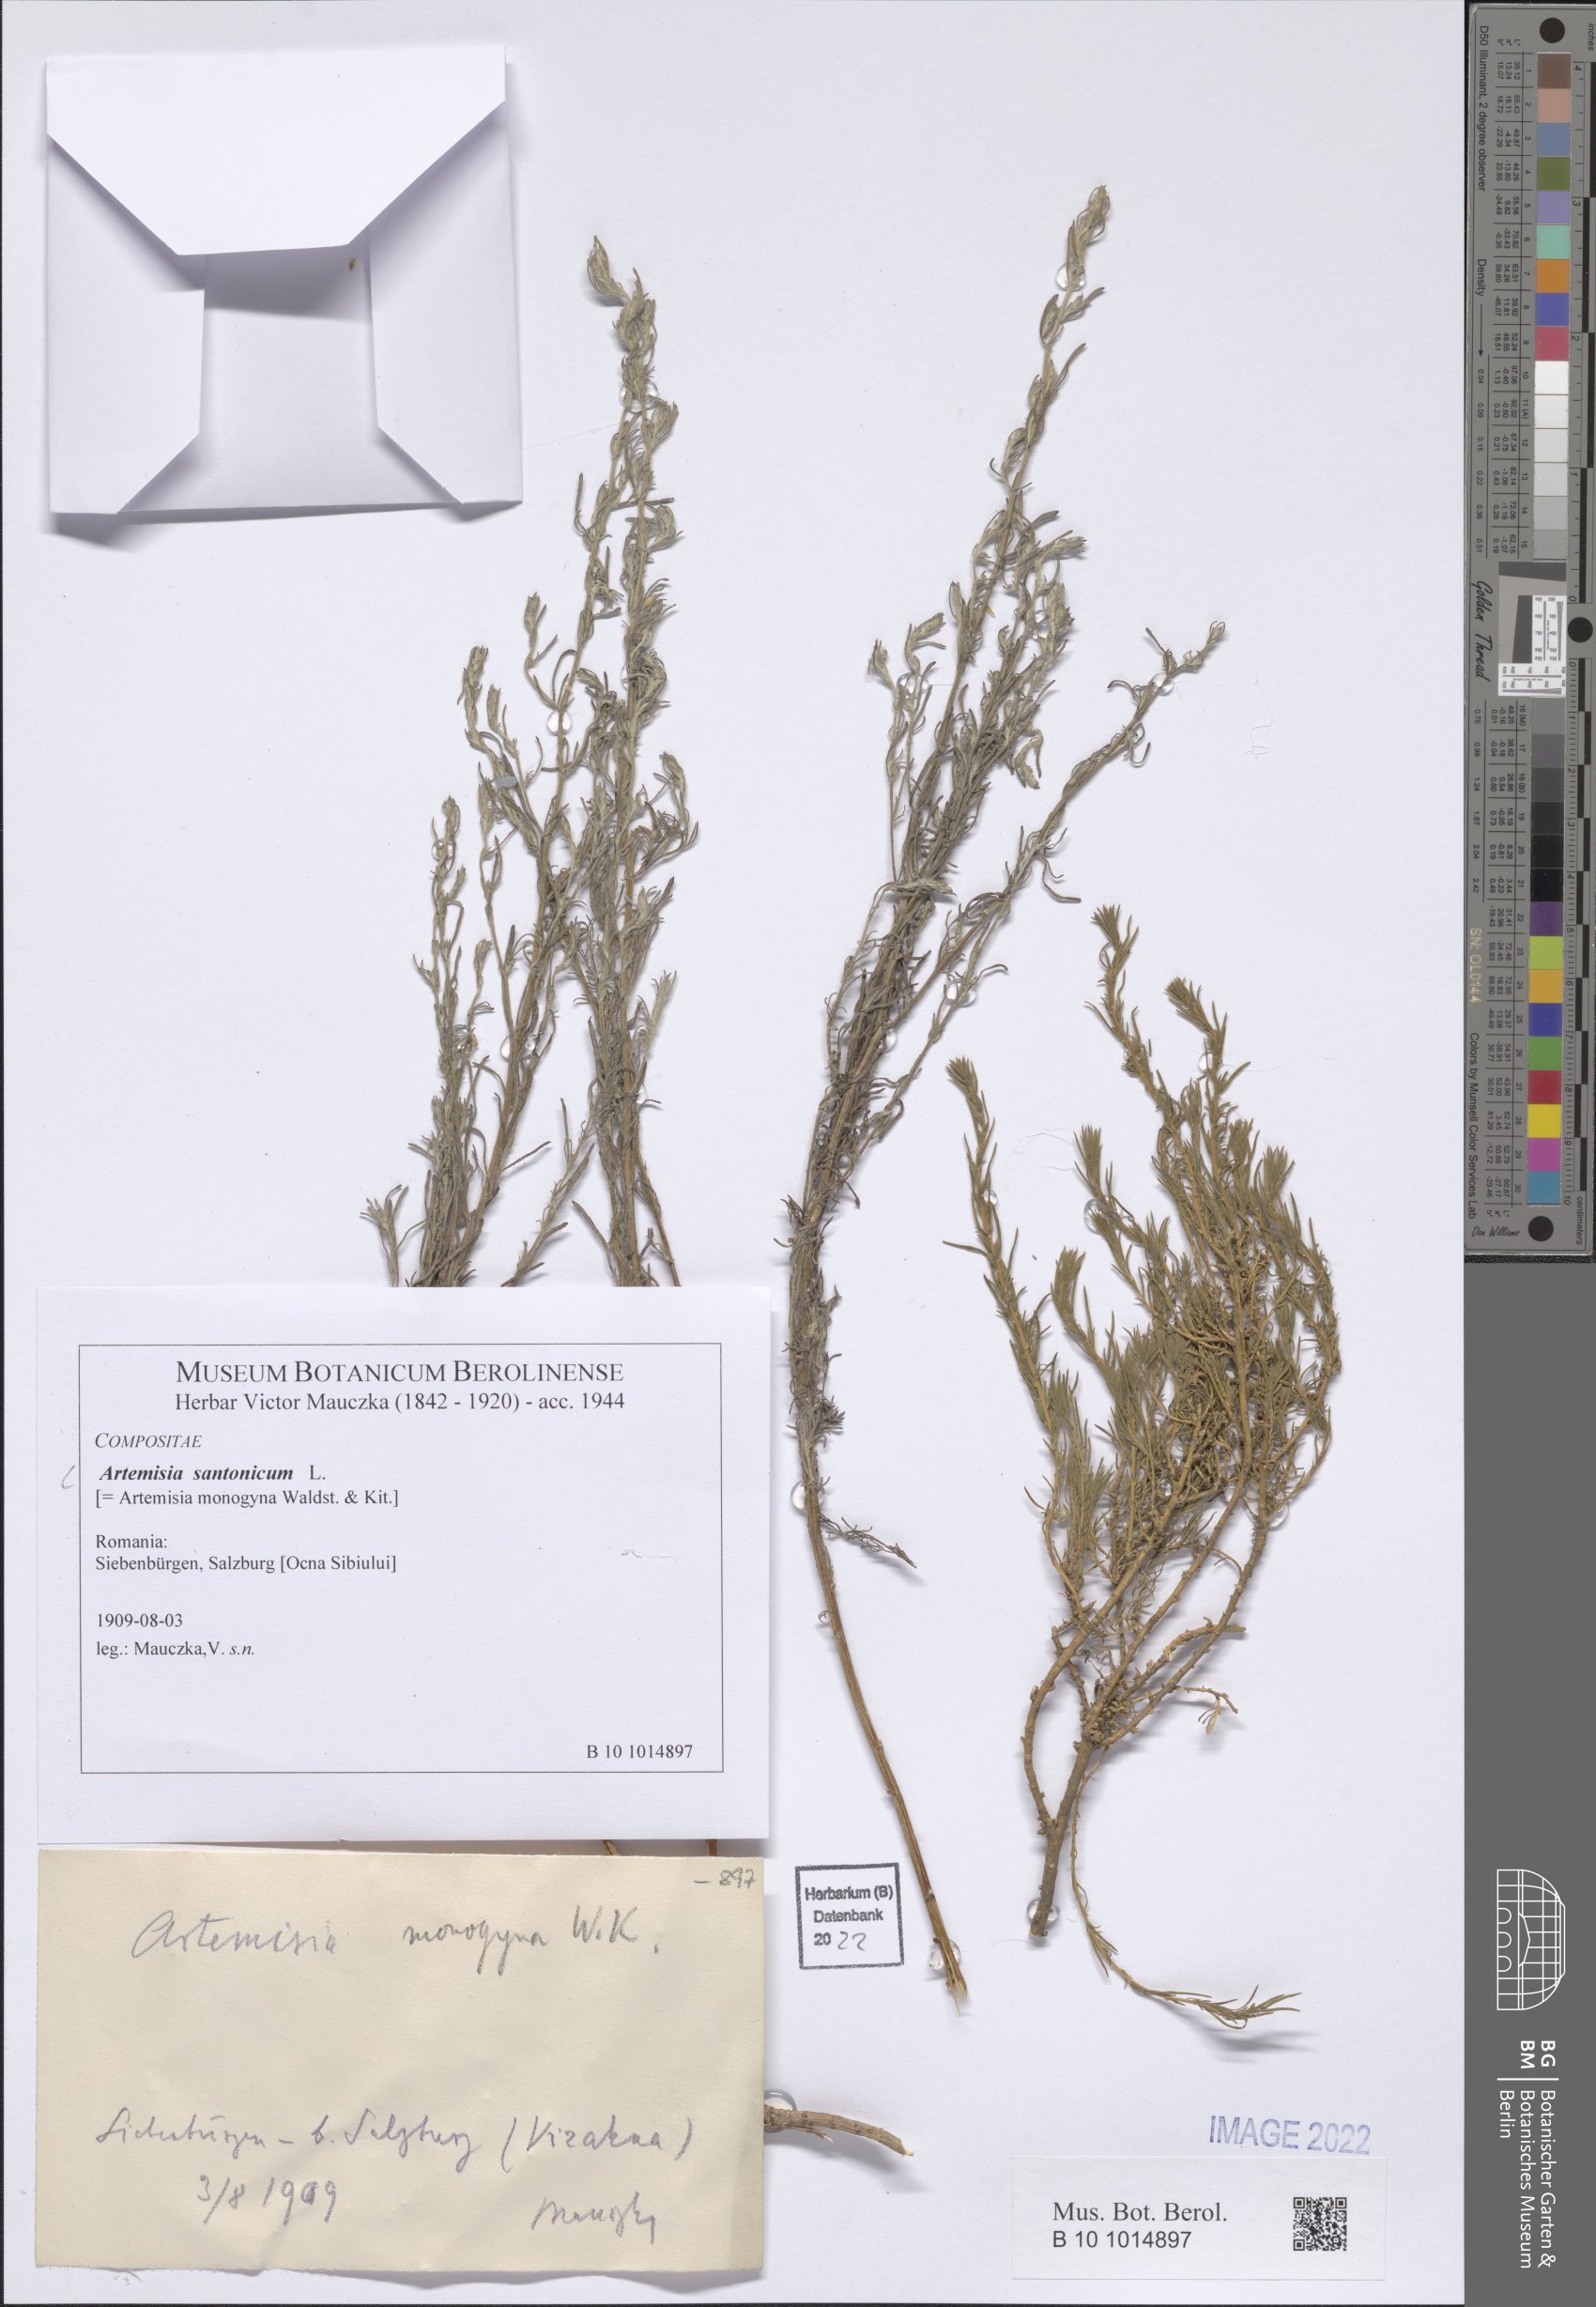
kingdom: Plantae
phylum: Tracheophyta
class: Magnoliopsida
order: Asterales
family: Asteraceae
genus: Artemisia
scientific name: Artemisia santonicum
